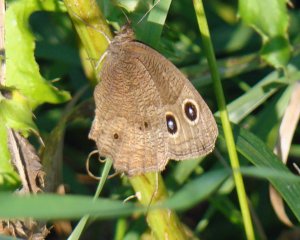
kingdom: Animalia
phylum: Arthropoda
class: Insecta
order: Lepidoptera
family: Nymphalidae
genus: Cercyonis
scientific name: Cercyonis pegala
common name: Common Wood-Nymph
